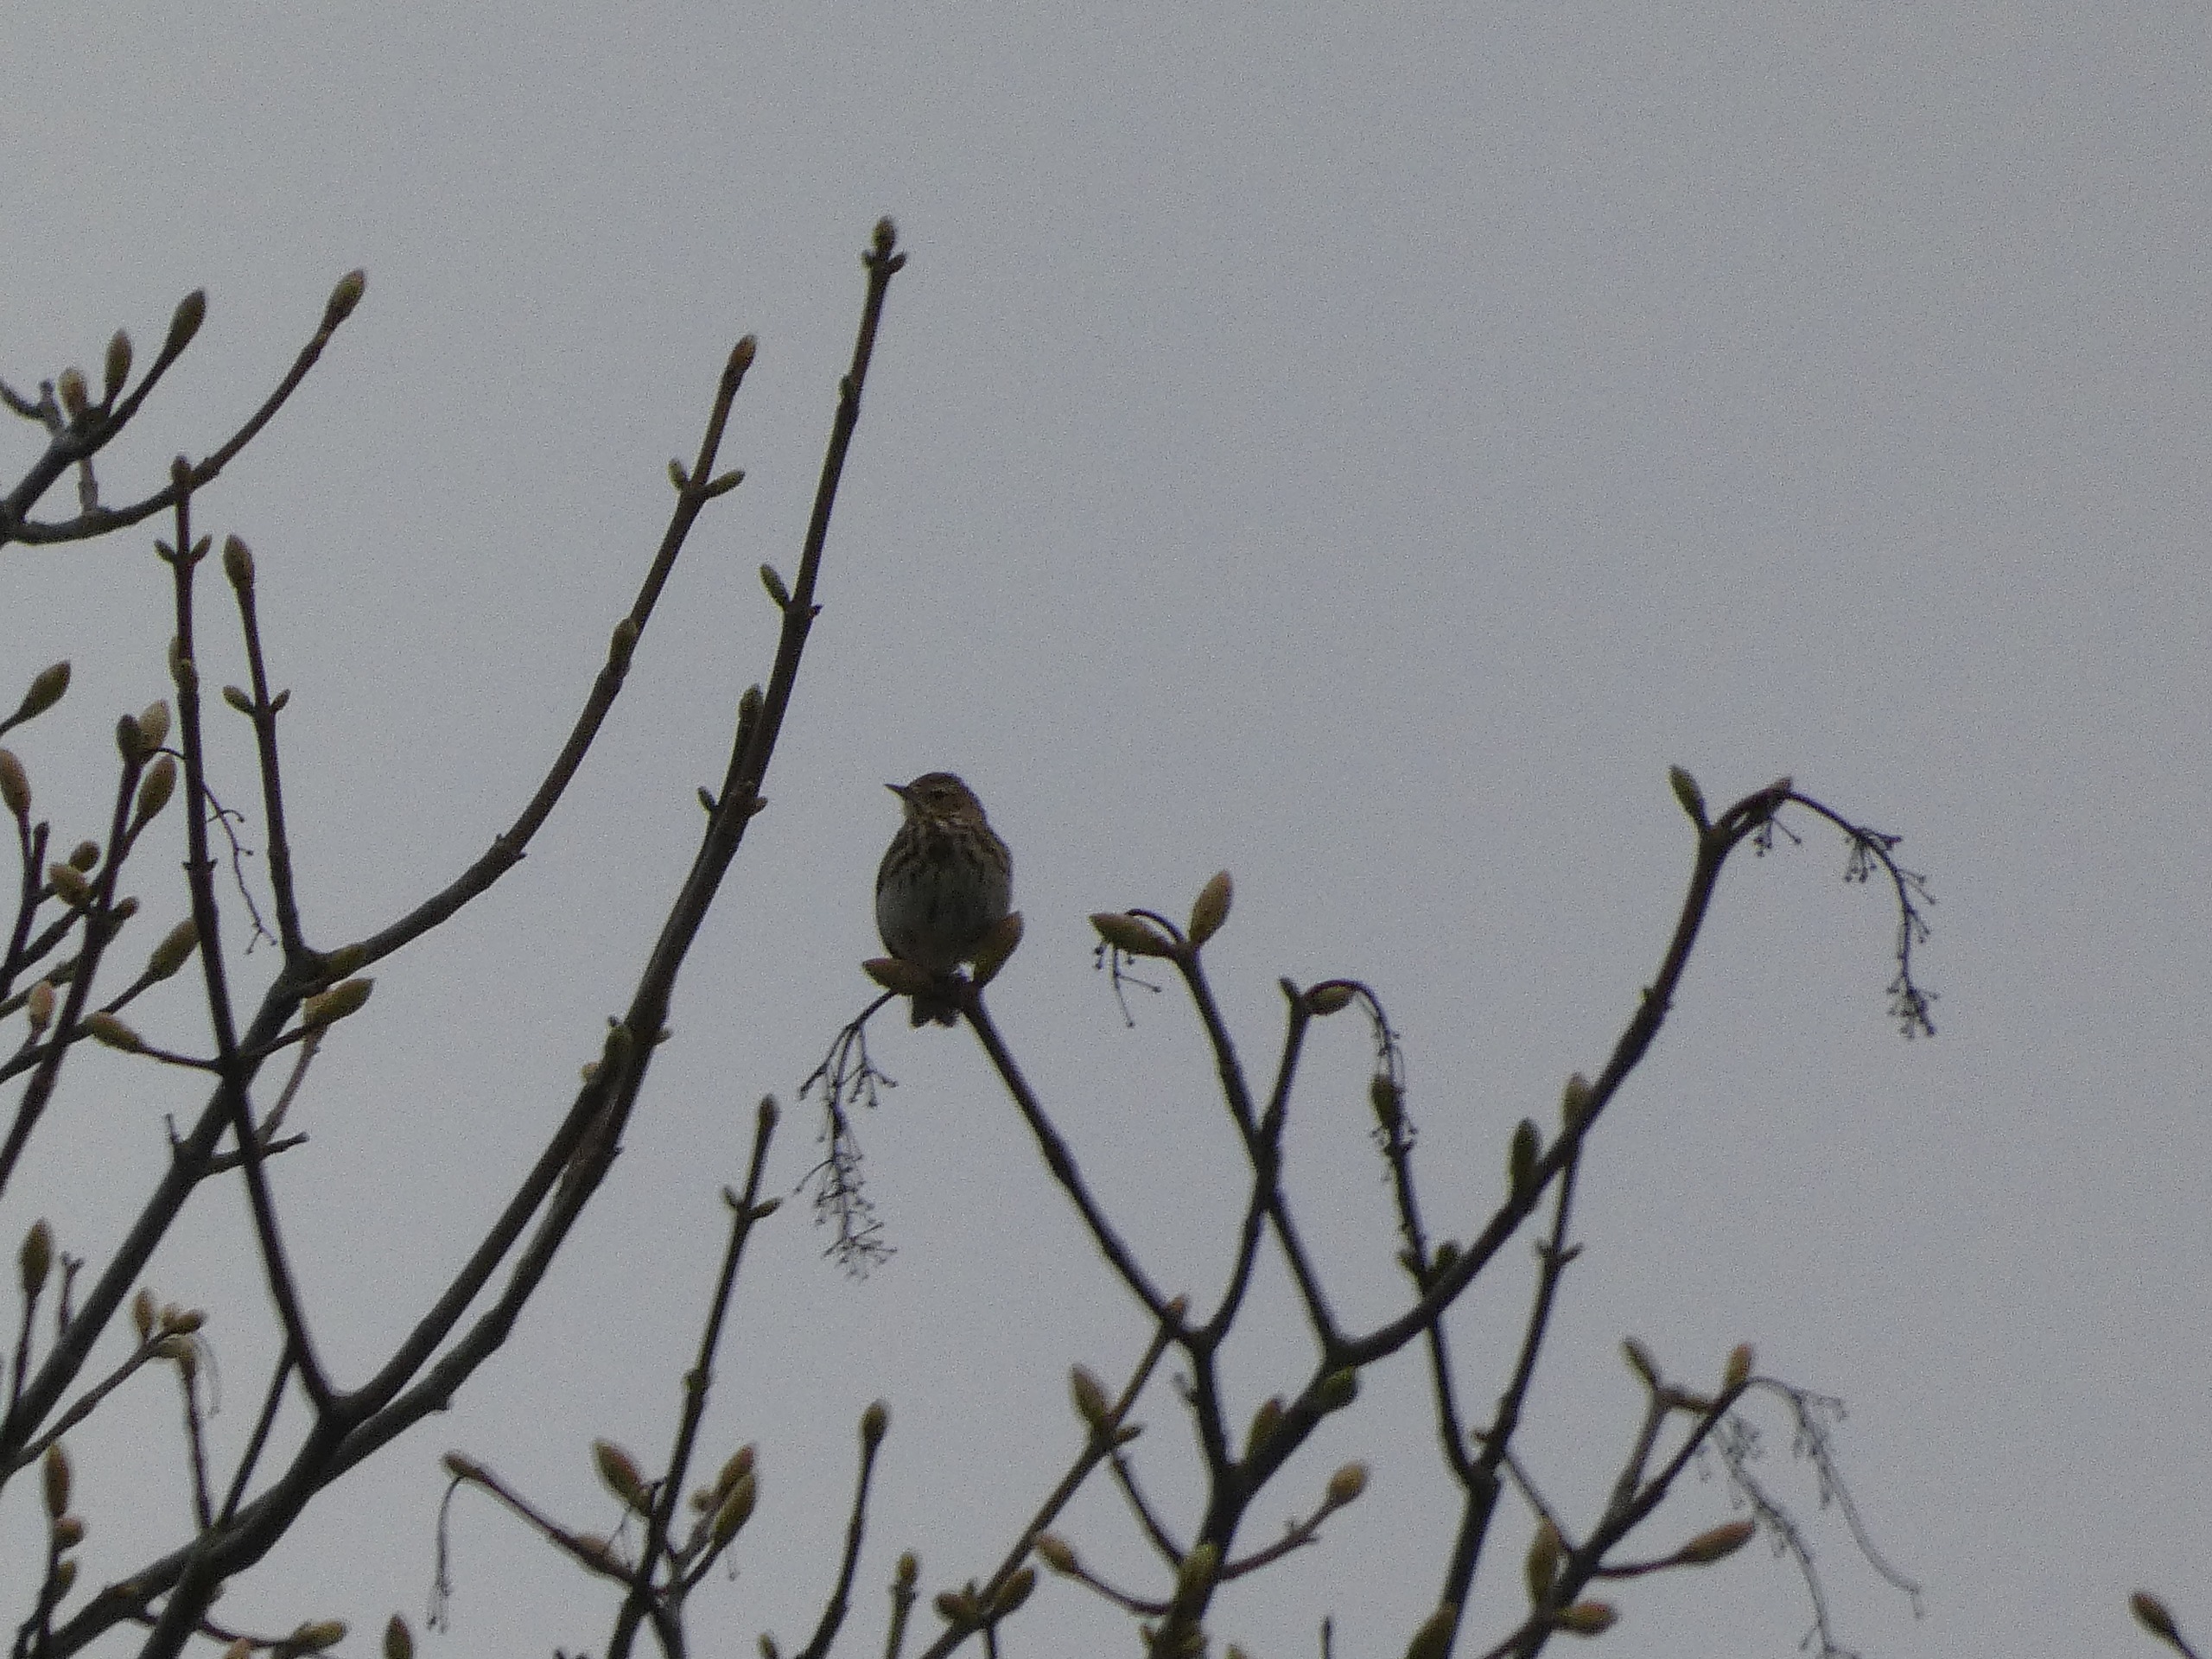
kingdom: Animalia
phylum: Chordata
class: Aves
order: Passeriformes
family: Motacillidae
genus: Anthus
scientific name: Anthus trivialis
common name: Skovpiber
